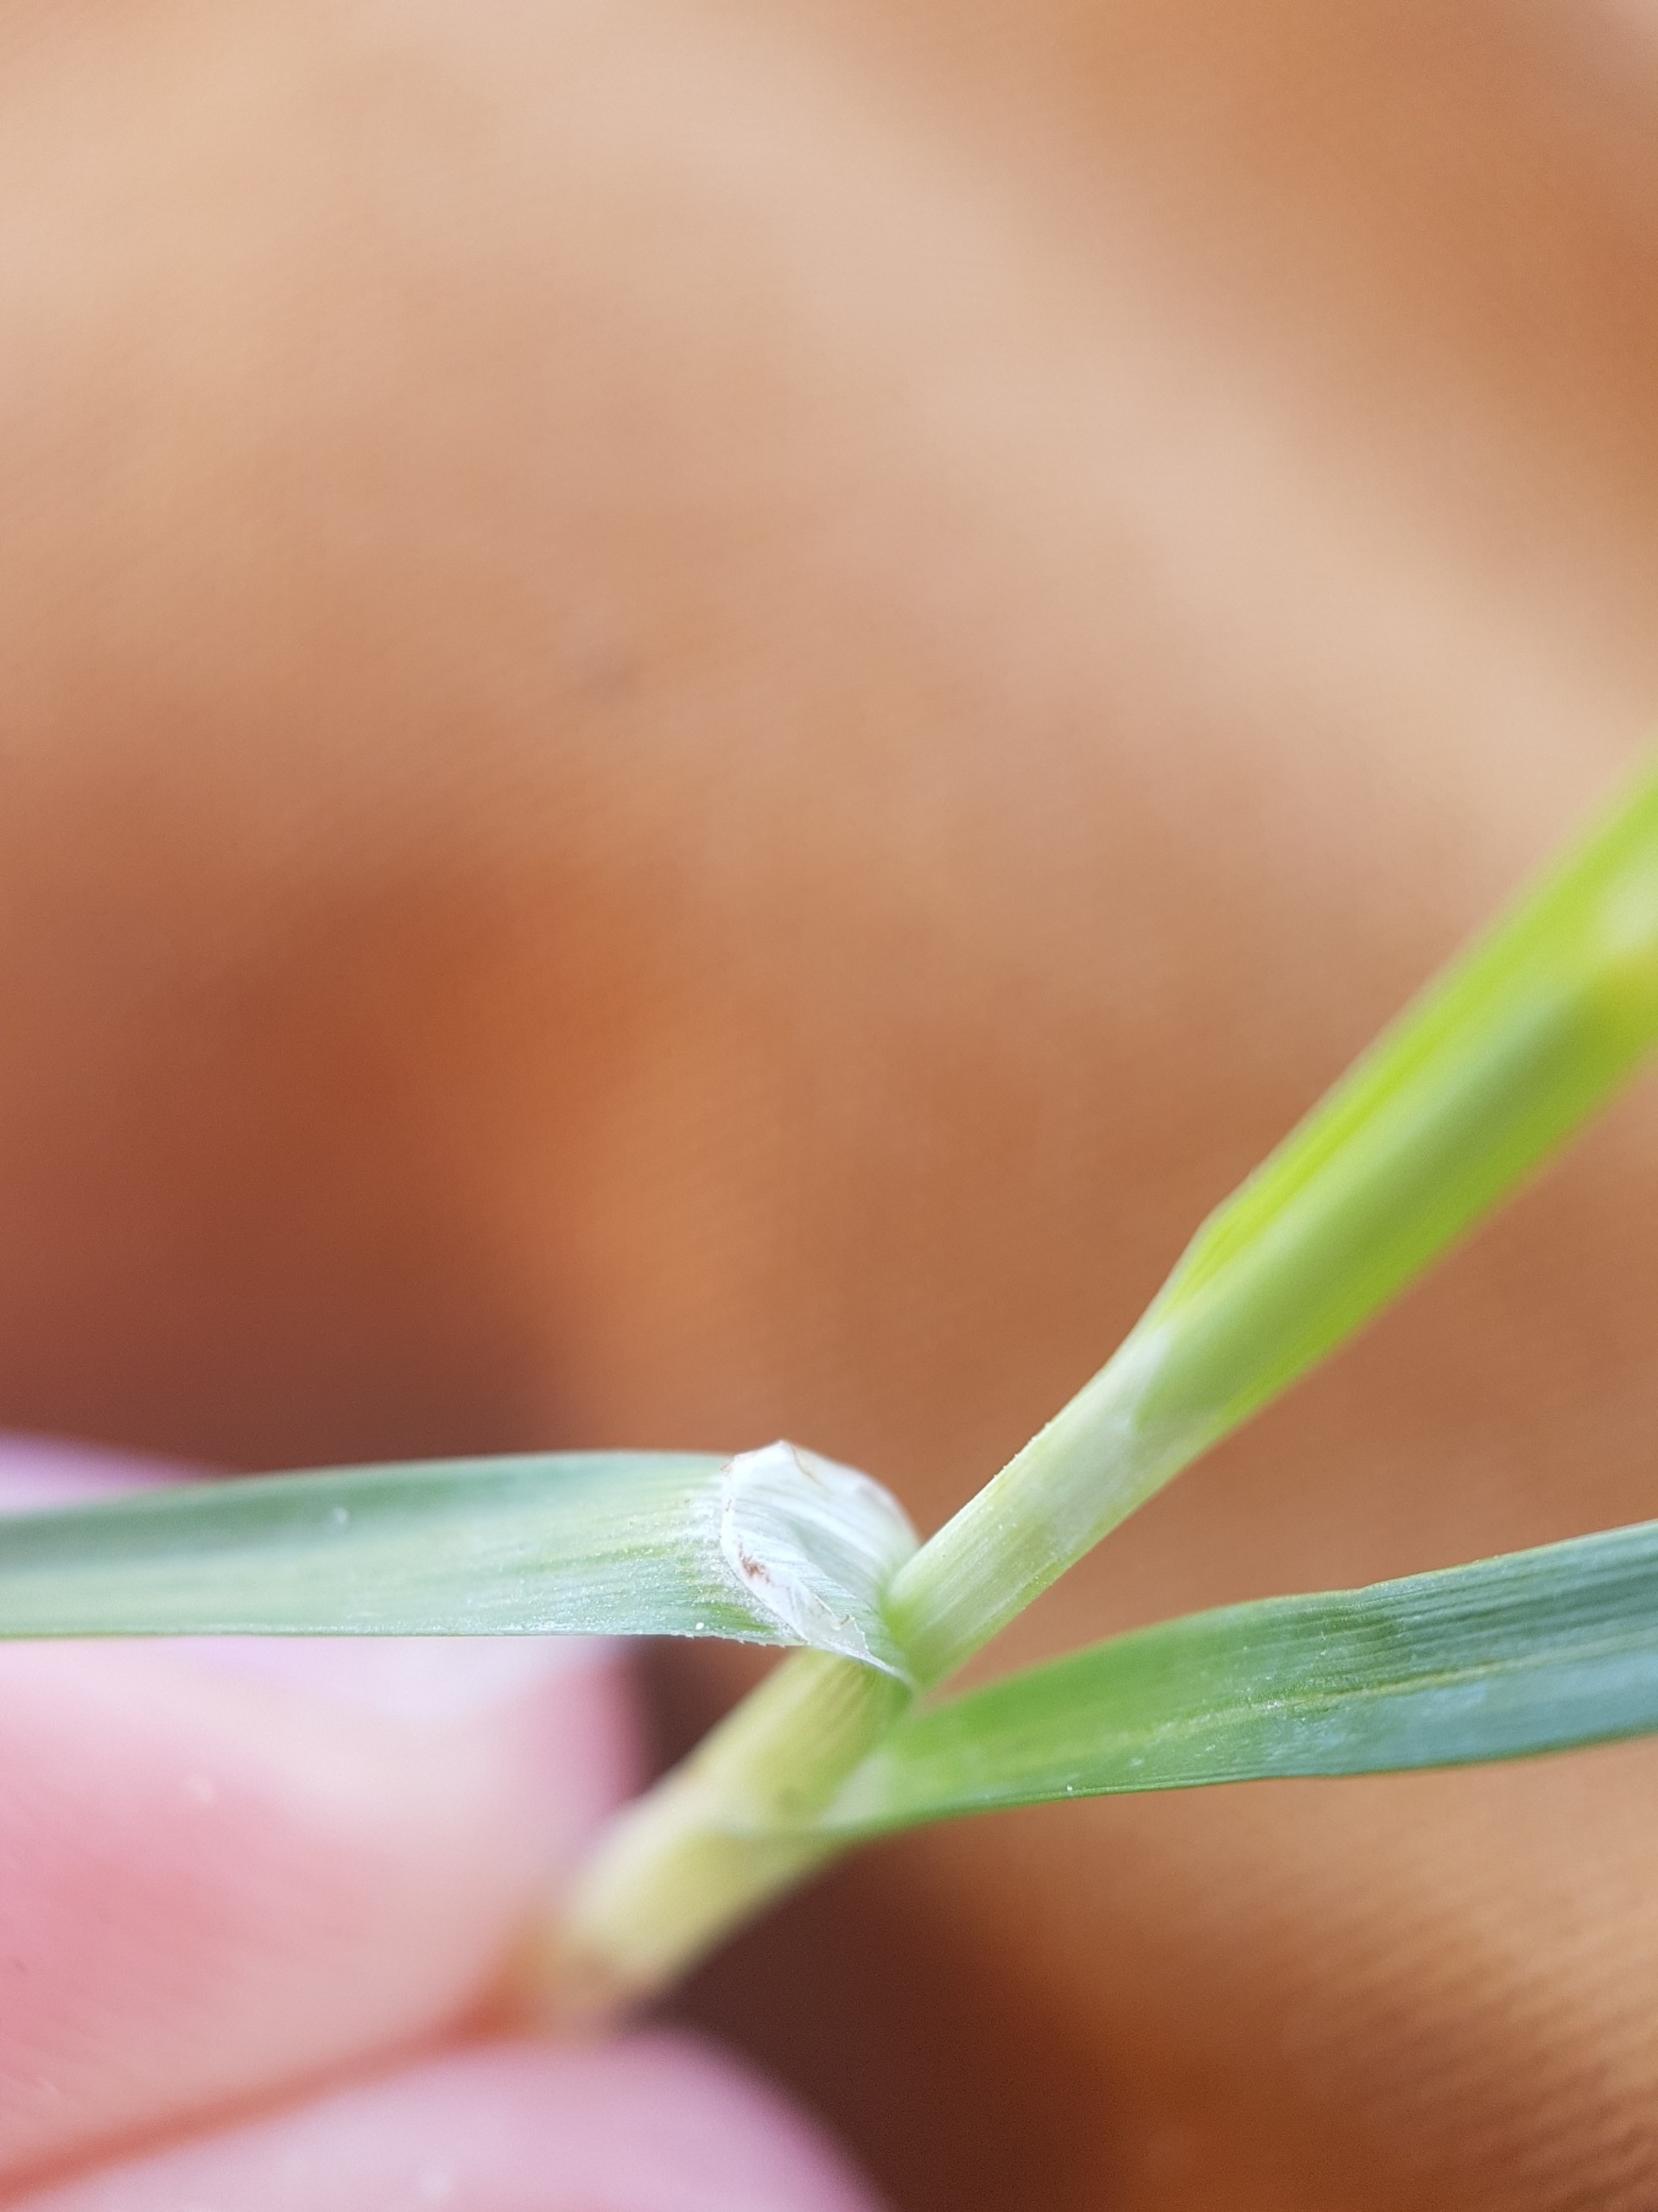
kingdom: Plantae
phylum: Tracheophyta
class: Liliopsida
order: Poales
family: Cyperaceae
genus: Carex
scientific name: Carex flacca
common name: Blågrøn star
